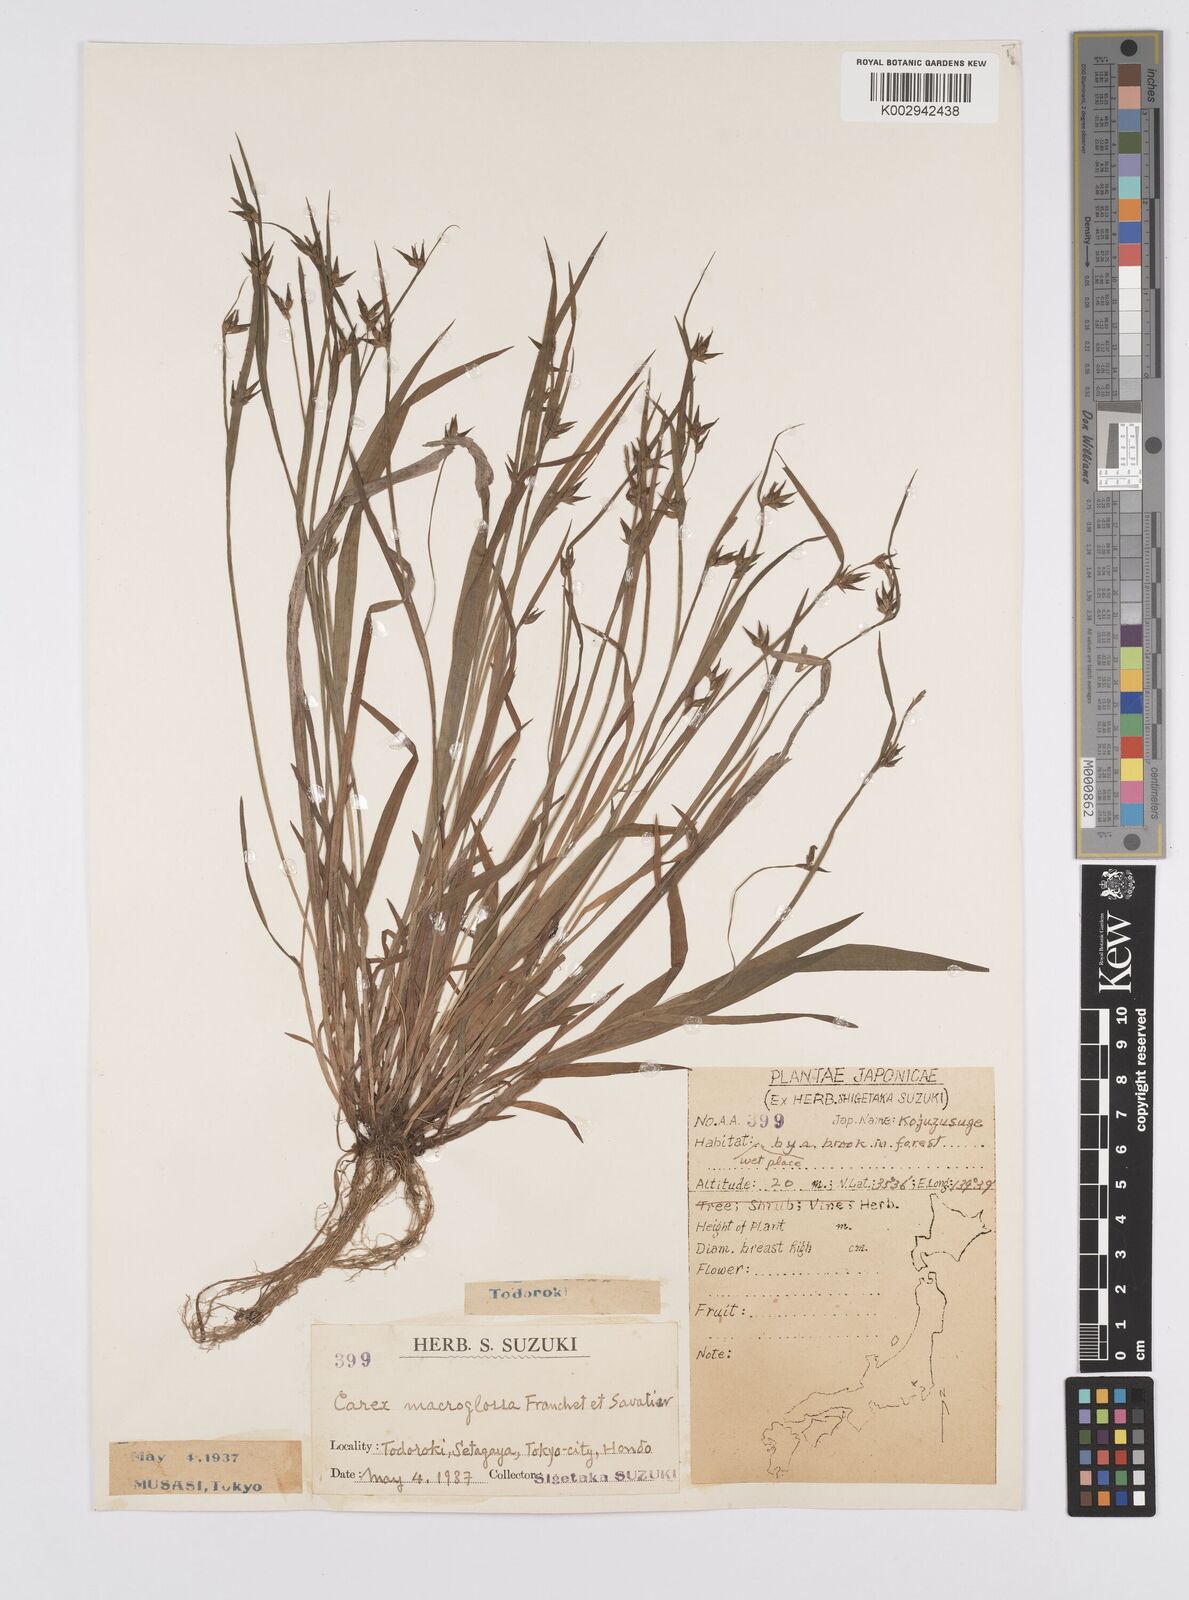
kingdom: Plantae
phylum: Tracheophyta
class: Liliopsida
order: Poales
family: Cyperaceae
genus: Carex
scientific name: Carex jackiana
